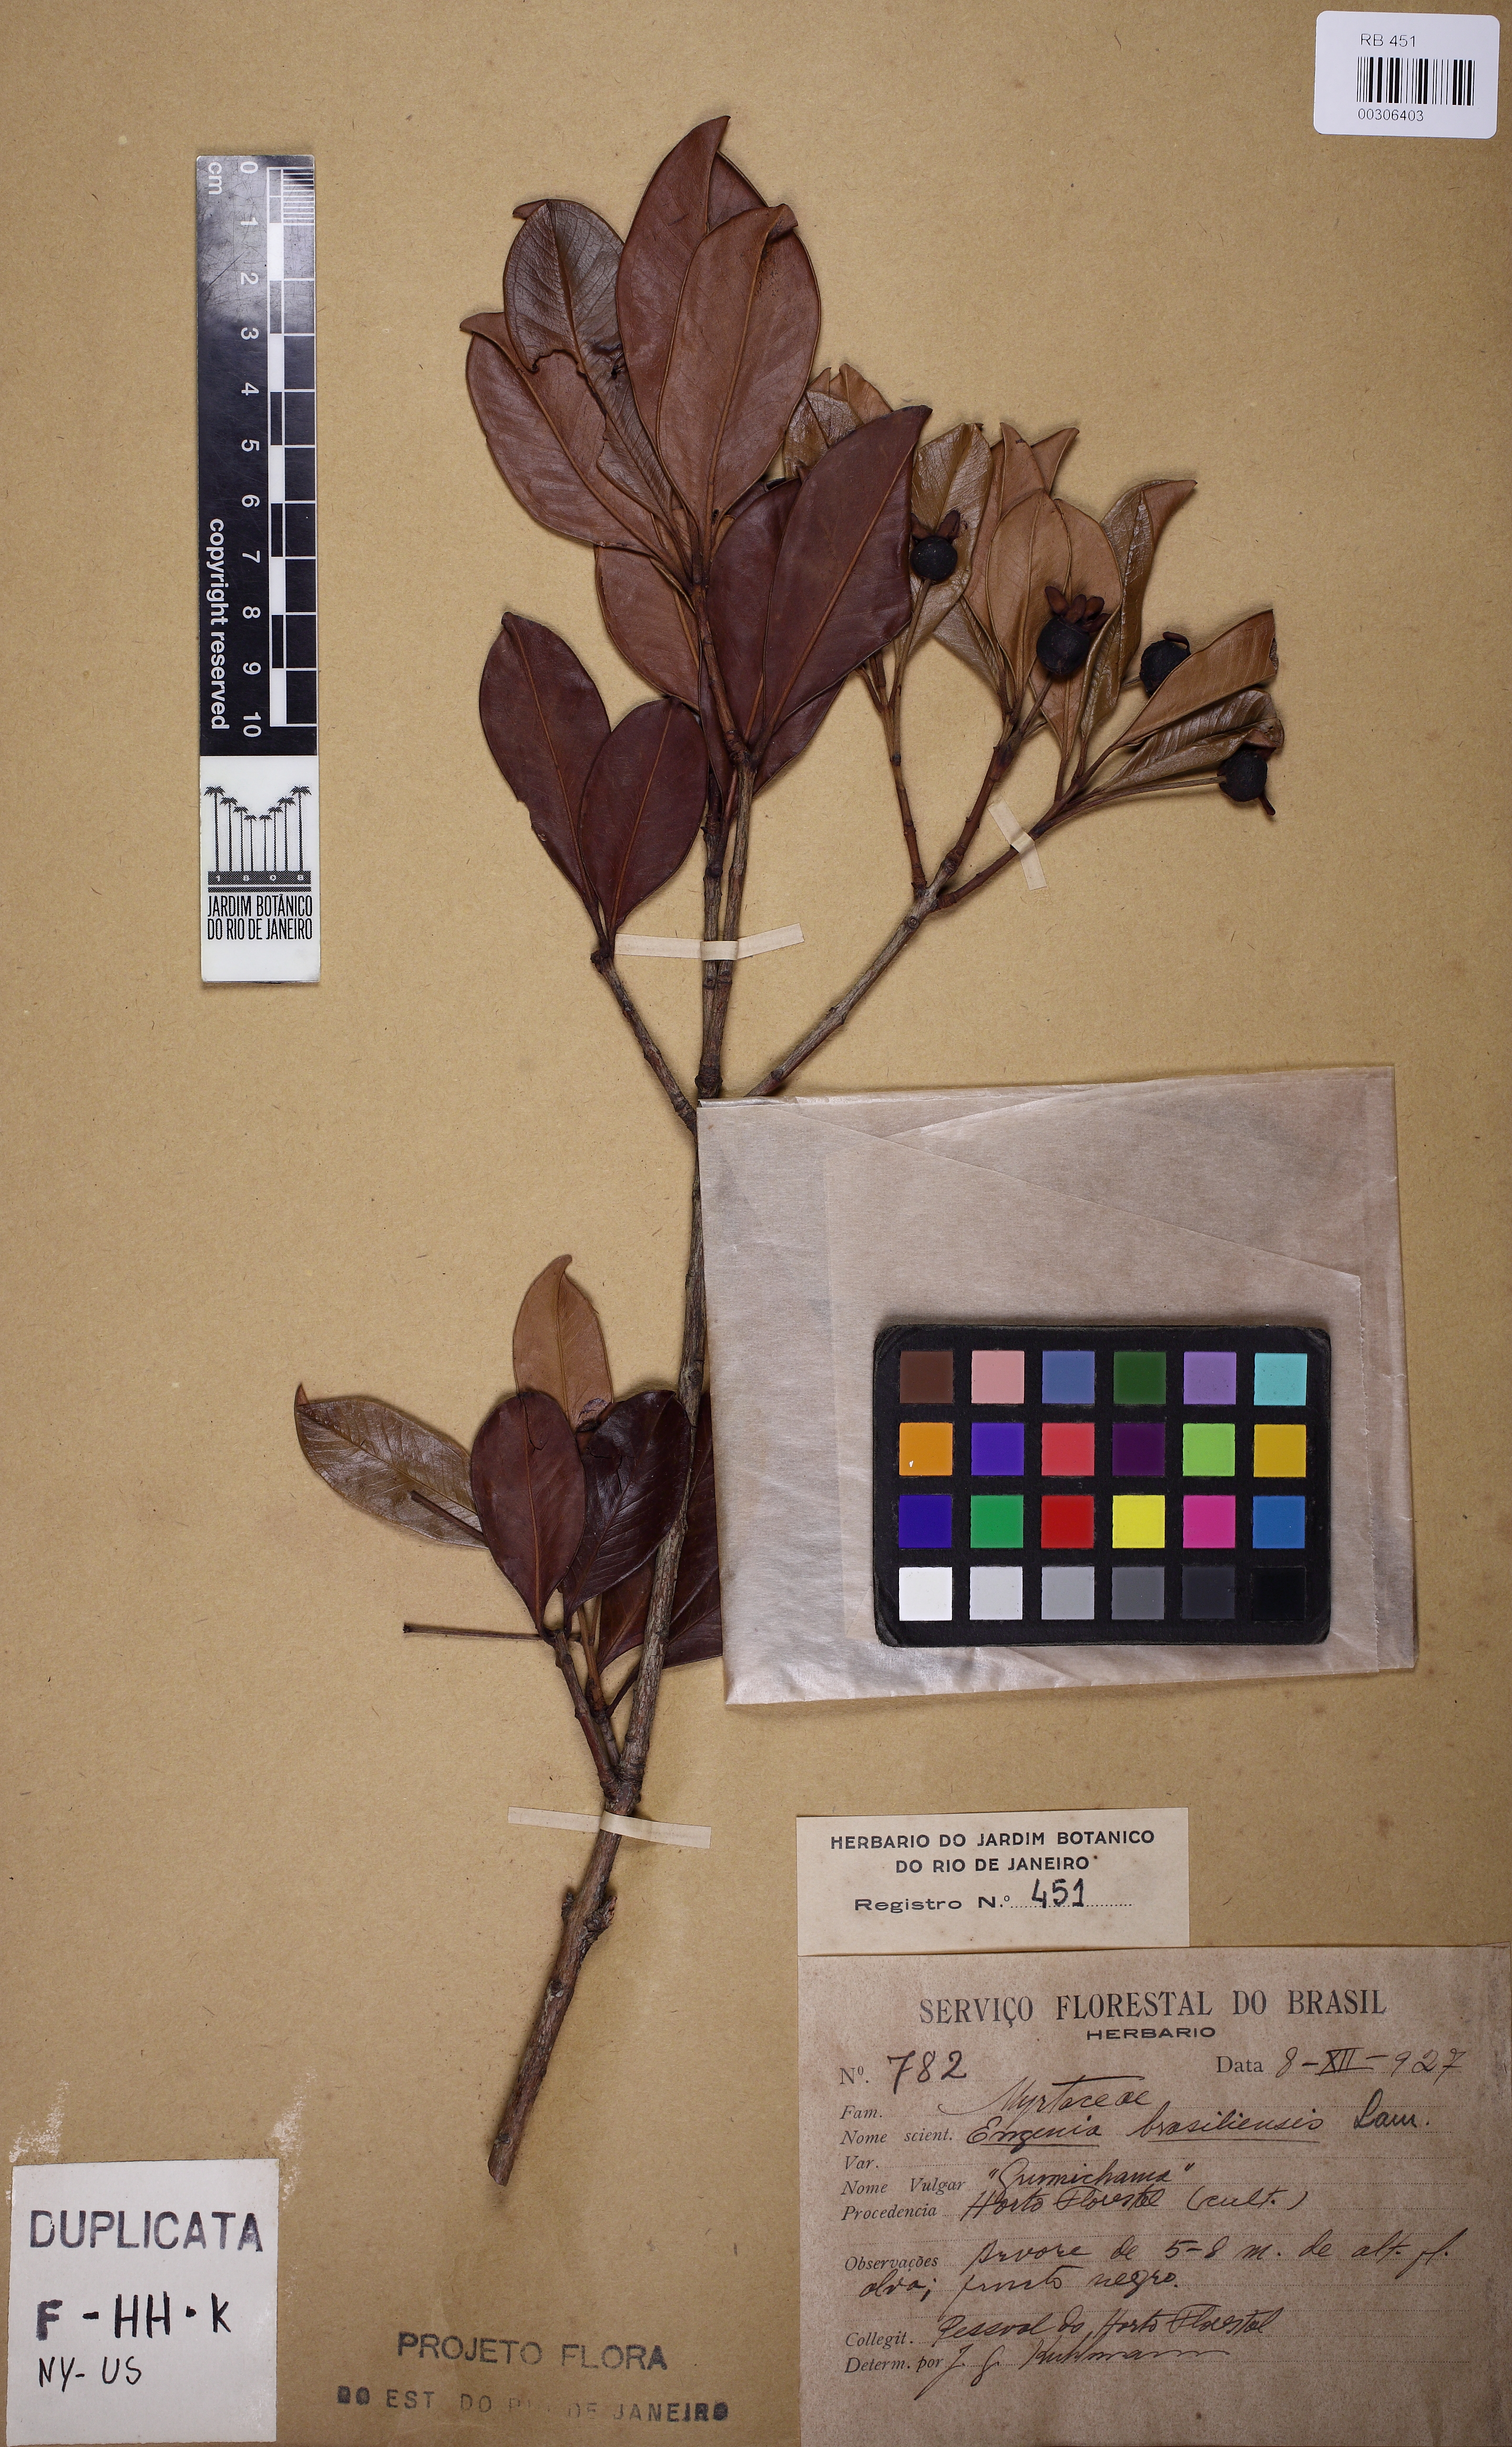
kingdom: Plantae
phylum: Tracheophyta
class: Magnoliopsida
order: Myrtales
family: Myrtaceae
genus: Eugenia
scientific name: Eugenia brasiliensis
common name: Grumichama
